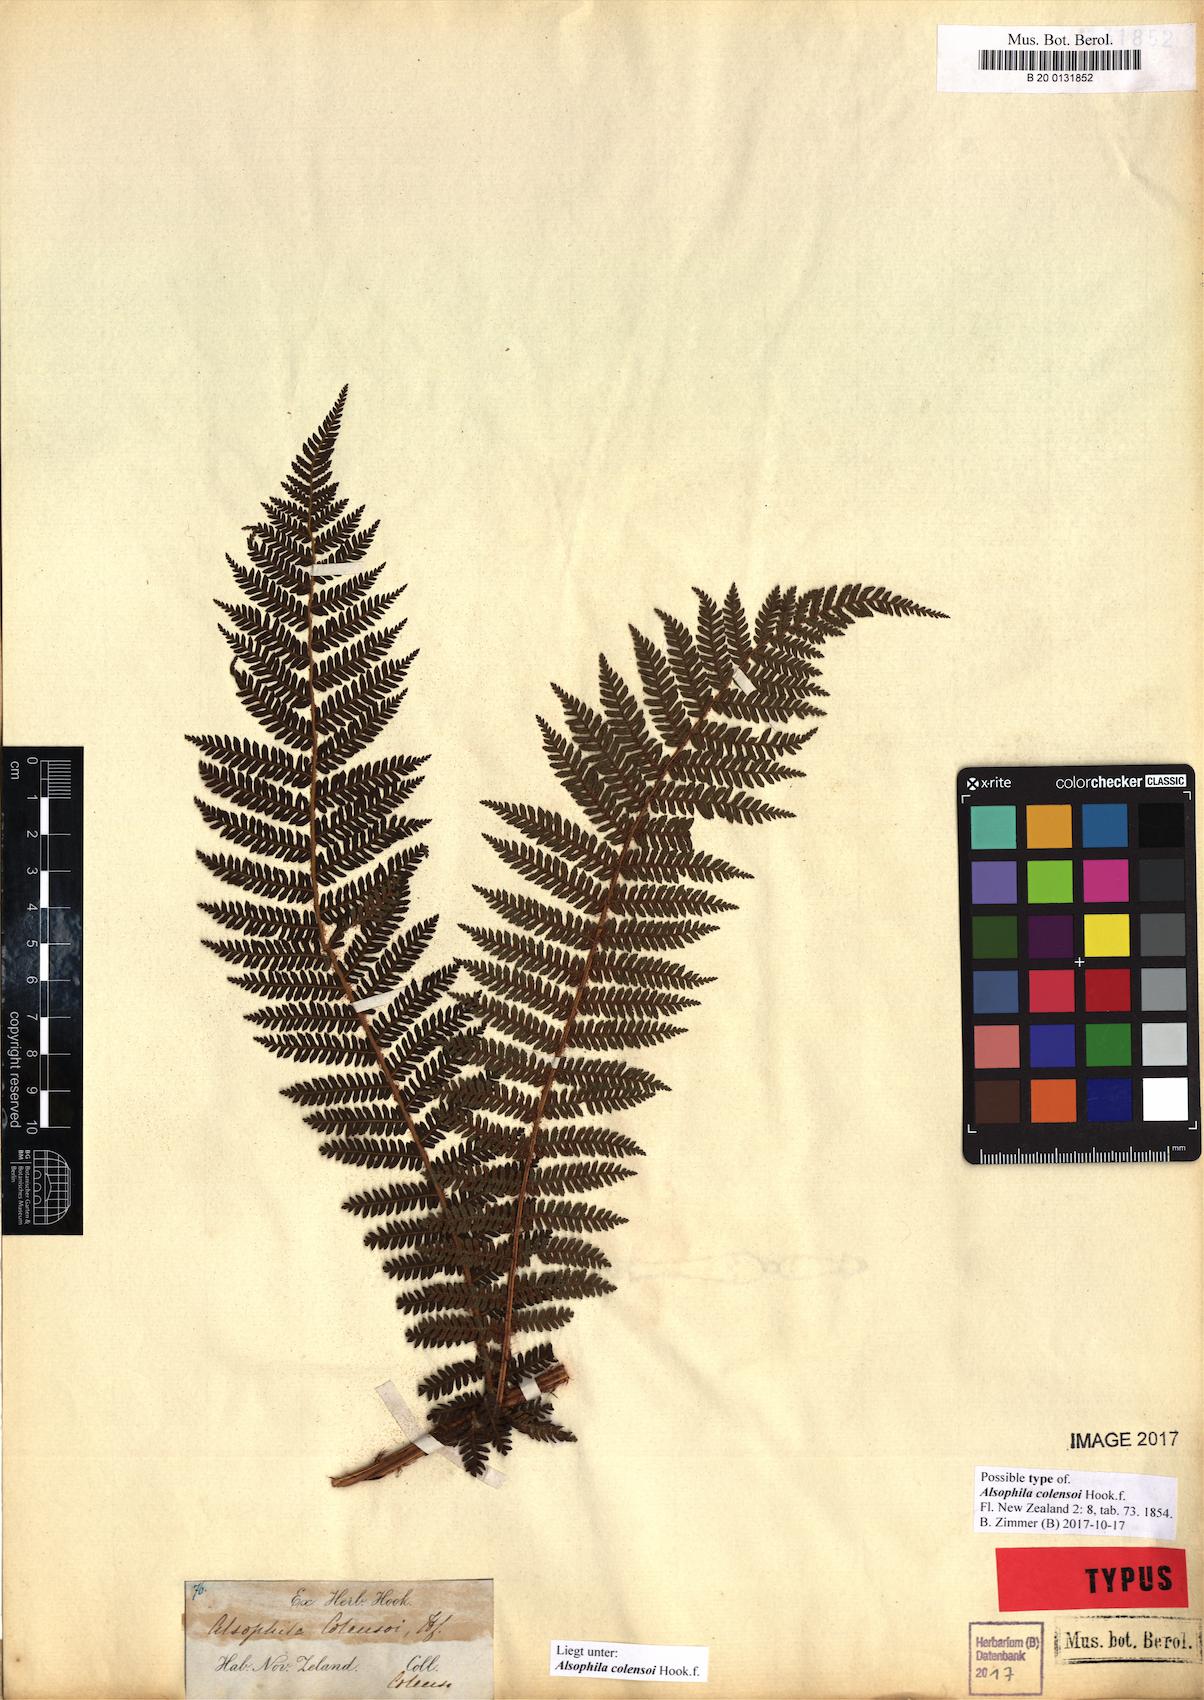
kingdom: Plantae
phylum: Tracheophyta
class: Polypodiopsida
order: Cyatheales
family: Cyatheaceae
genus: Alsophila
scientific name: Alsophila colensoi
